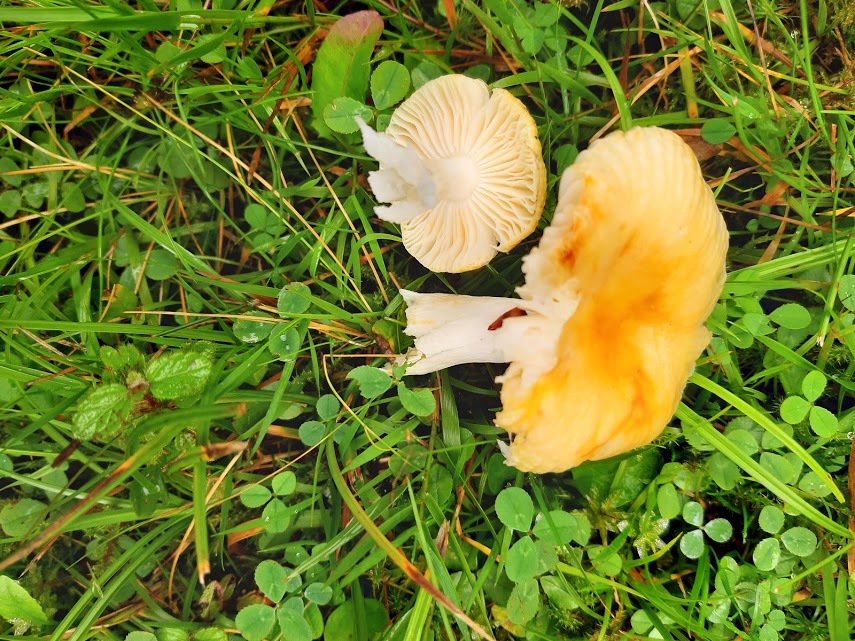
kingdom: Fungi
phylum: Basidiomycota
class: Agaricomycetes
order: Russulales
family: Russulaceae
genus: Russula
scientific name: Russula
